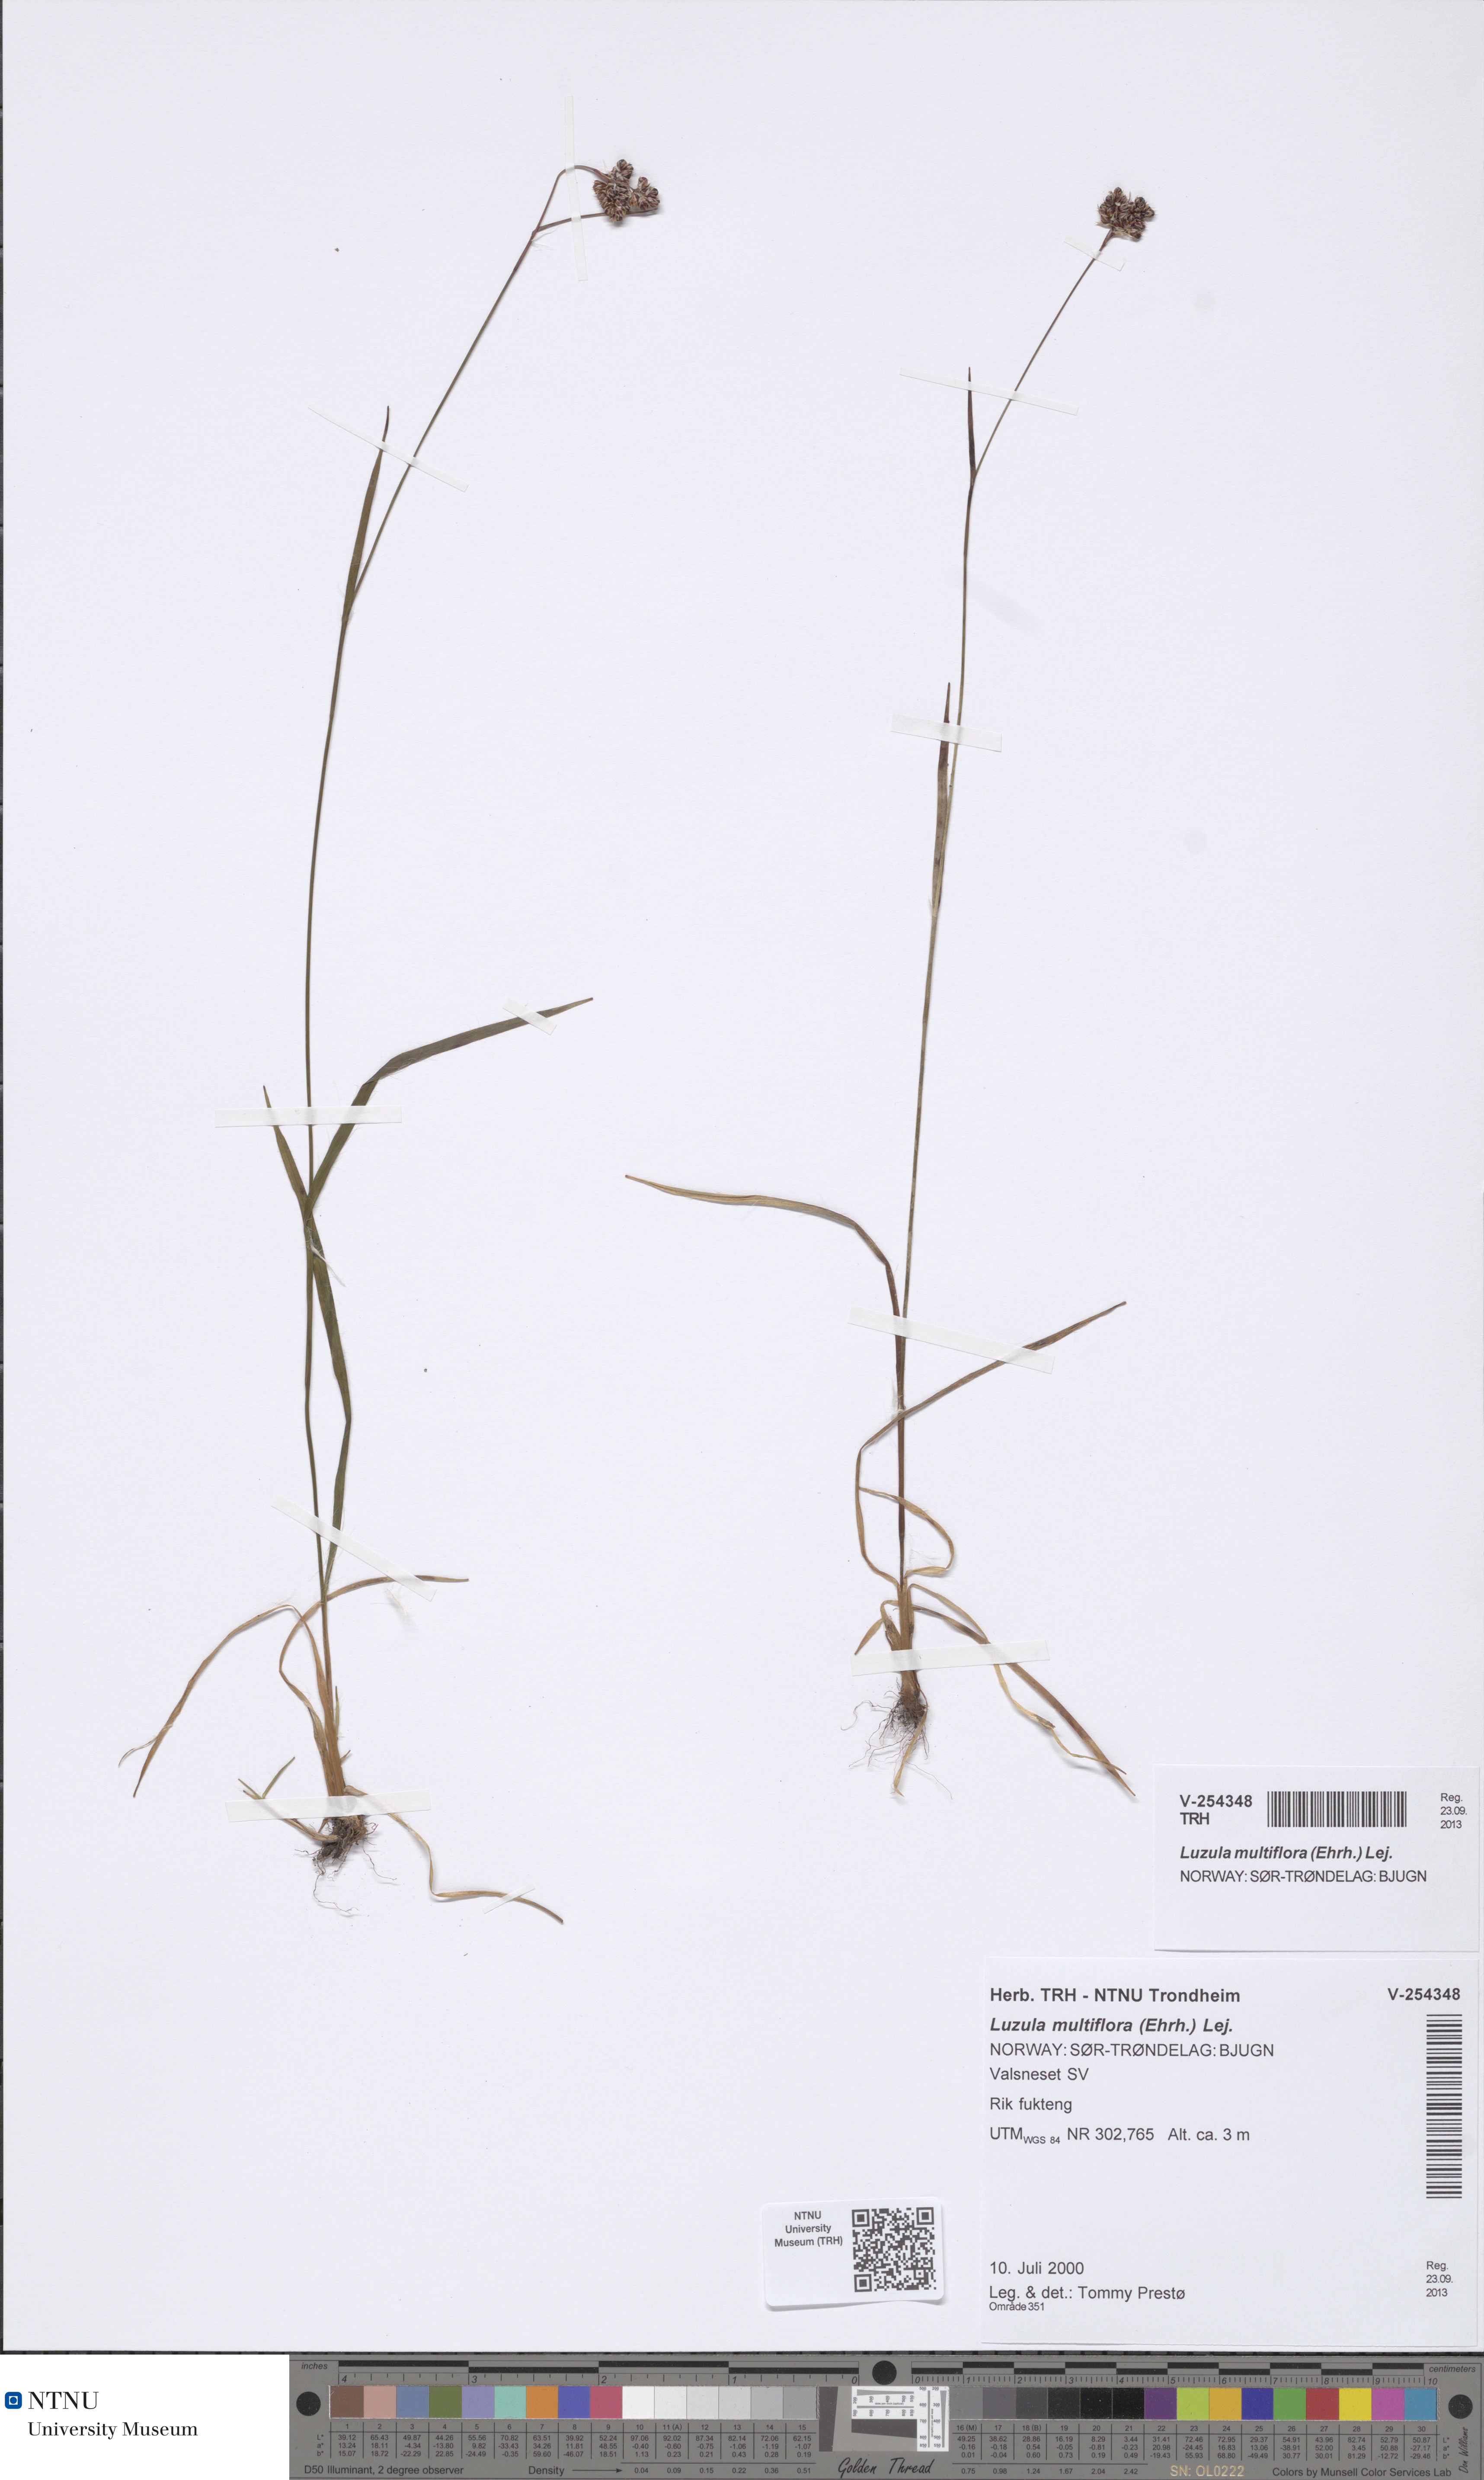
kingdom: Plantae
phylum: Tracheophyta
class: Liliopsida
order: Poales
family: Juncaceae
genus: Luzula
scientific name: Luzula multiflora
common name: Heath wood-rush
